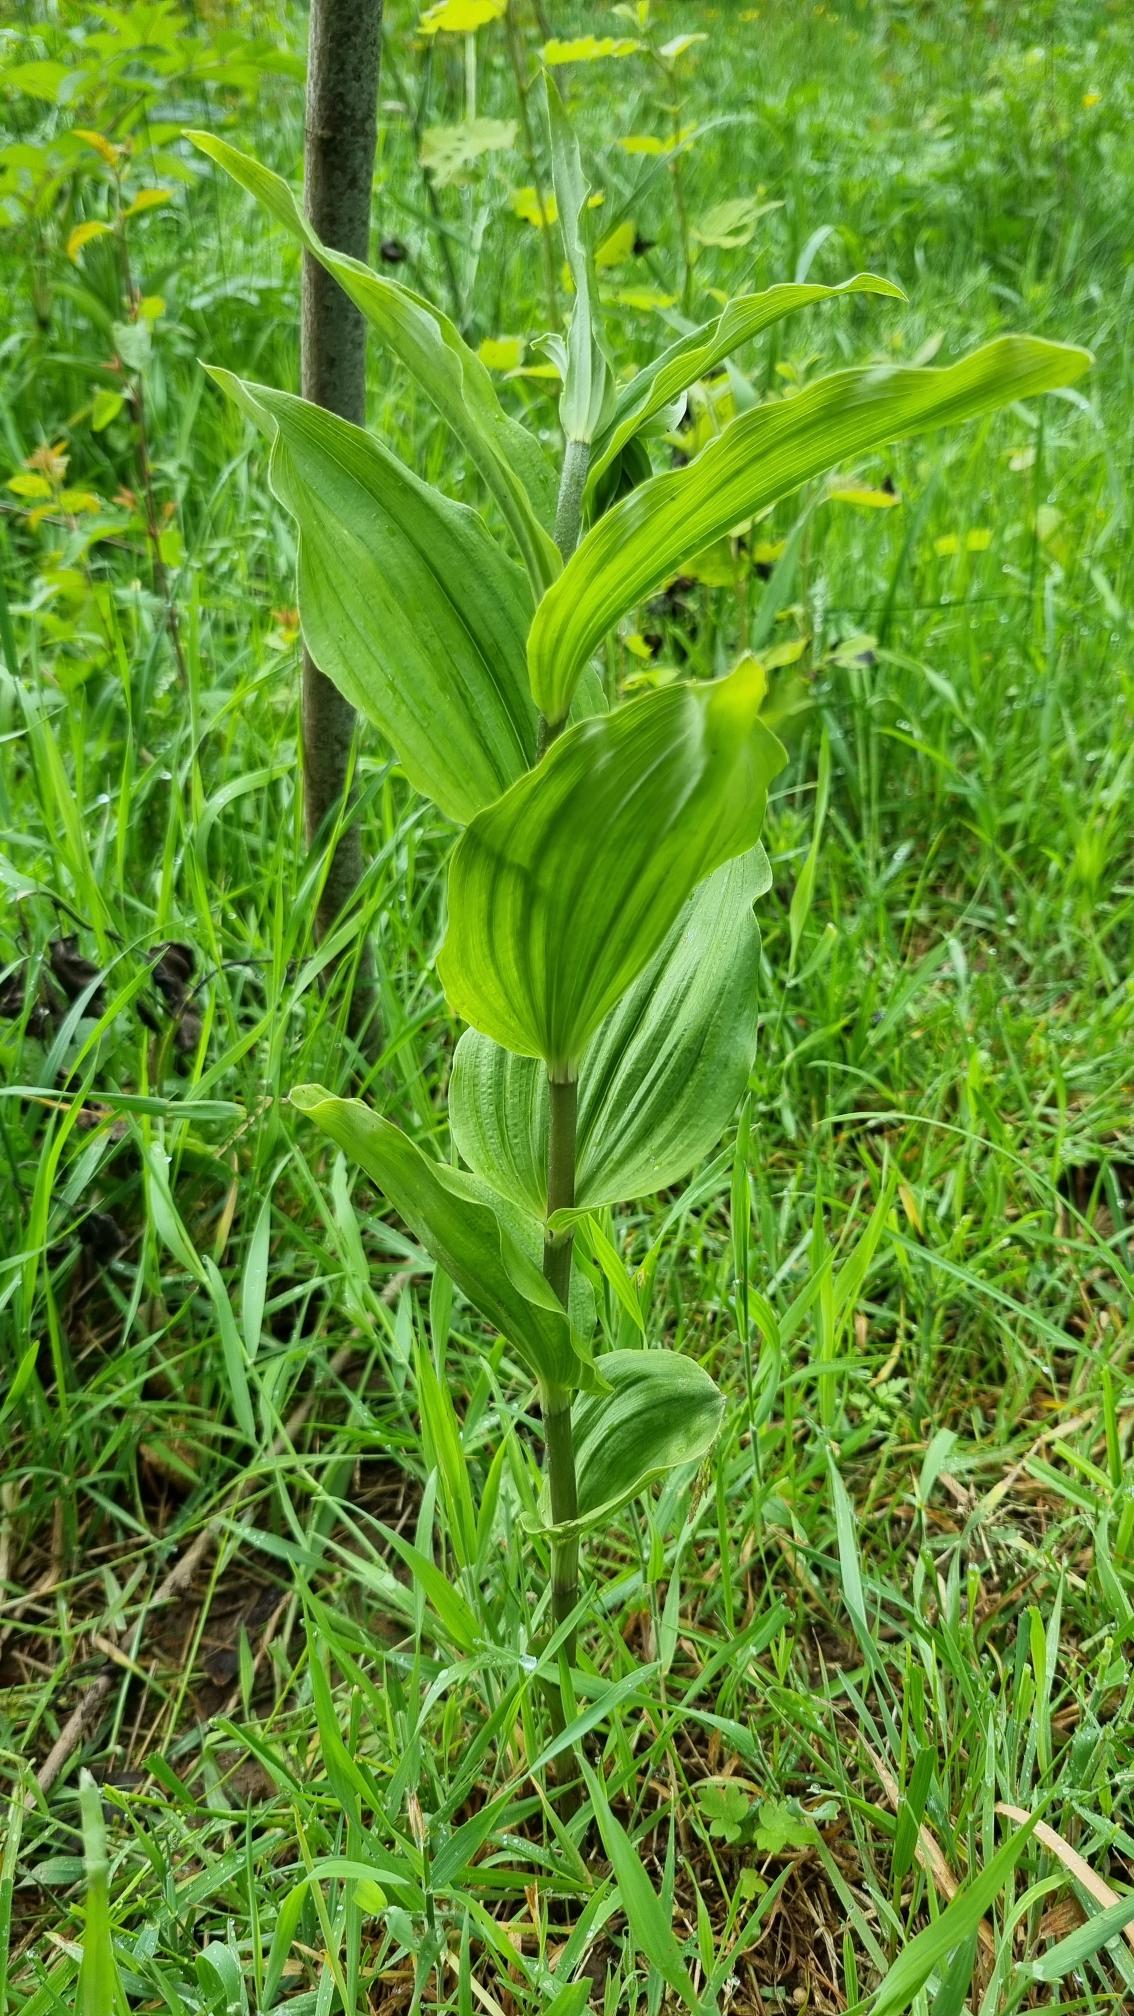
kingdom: Plantae
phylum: Tracheophyta
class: Liliopsida
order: Asparagales
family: Orchidaceae
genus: Epipactis
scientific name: Epipactis helleborine
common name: Skov-hullæbe
